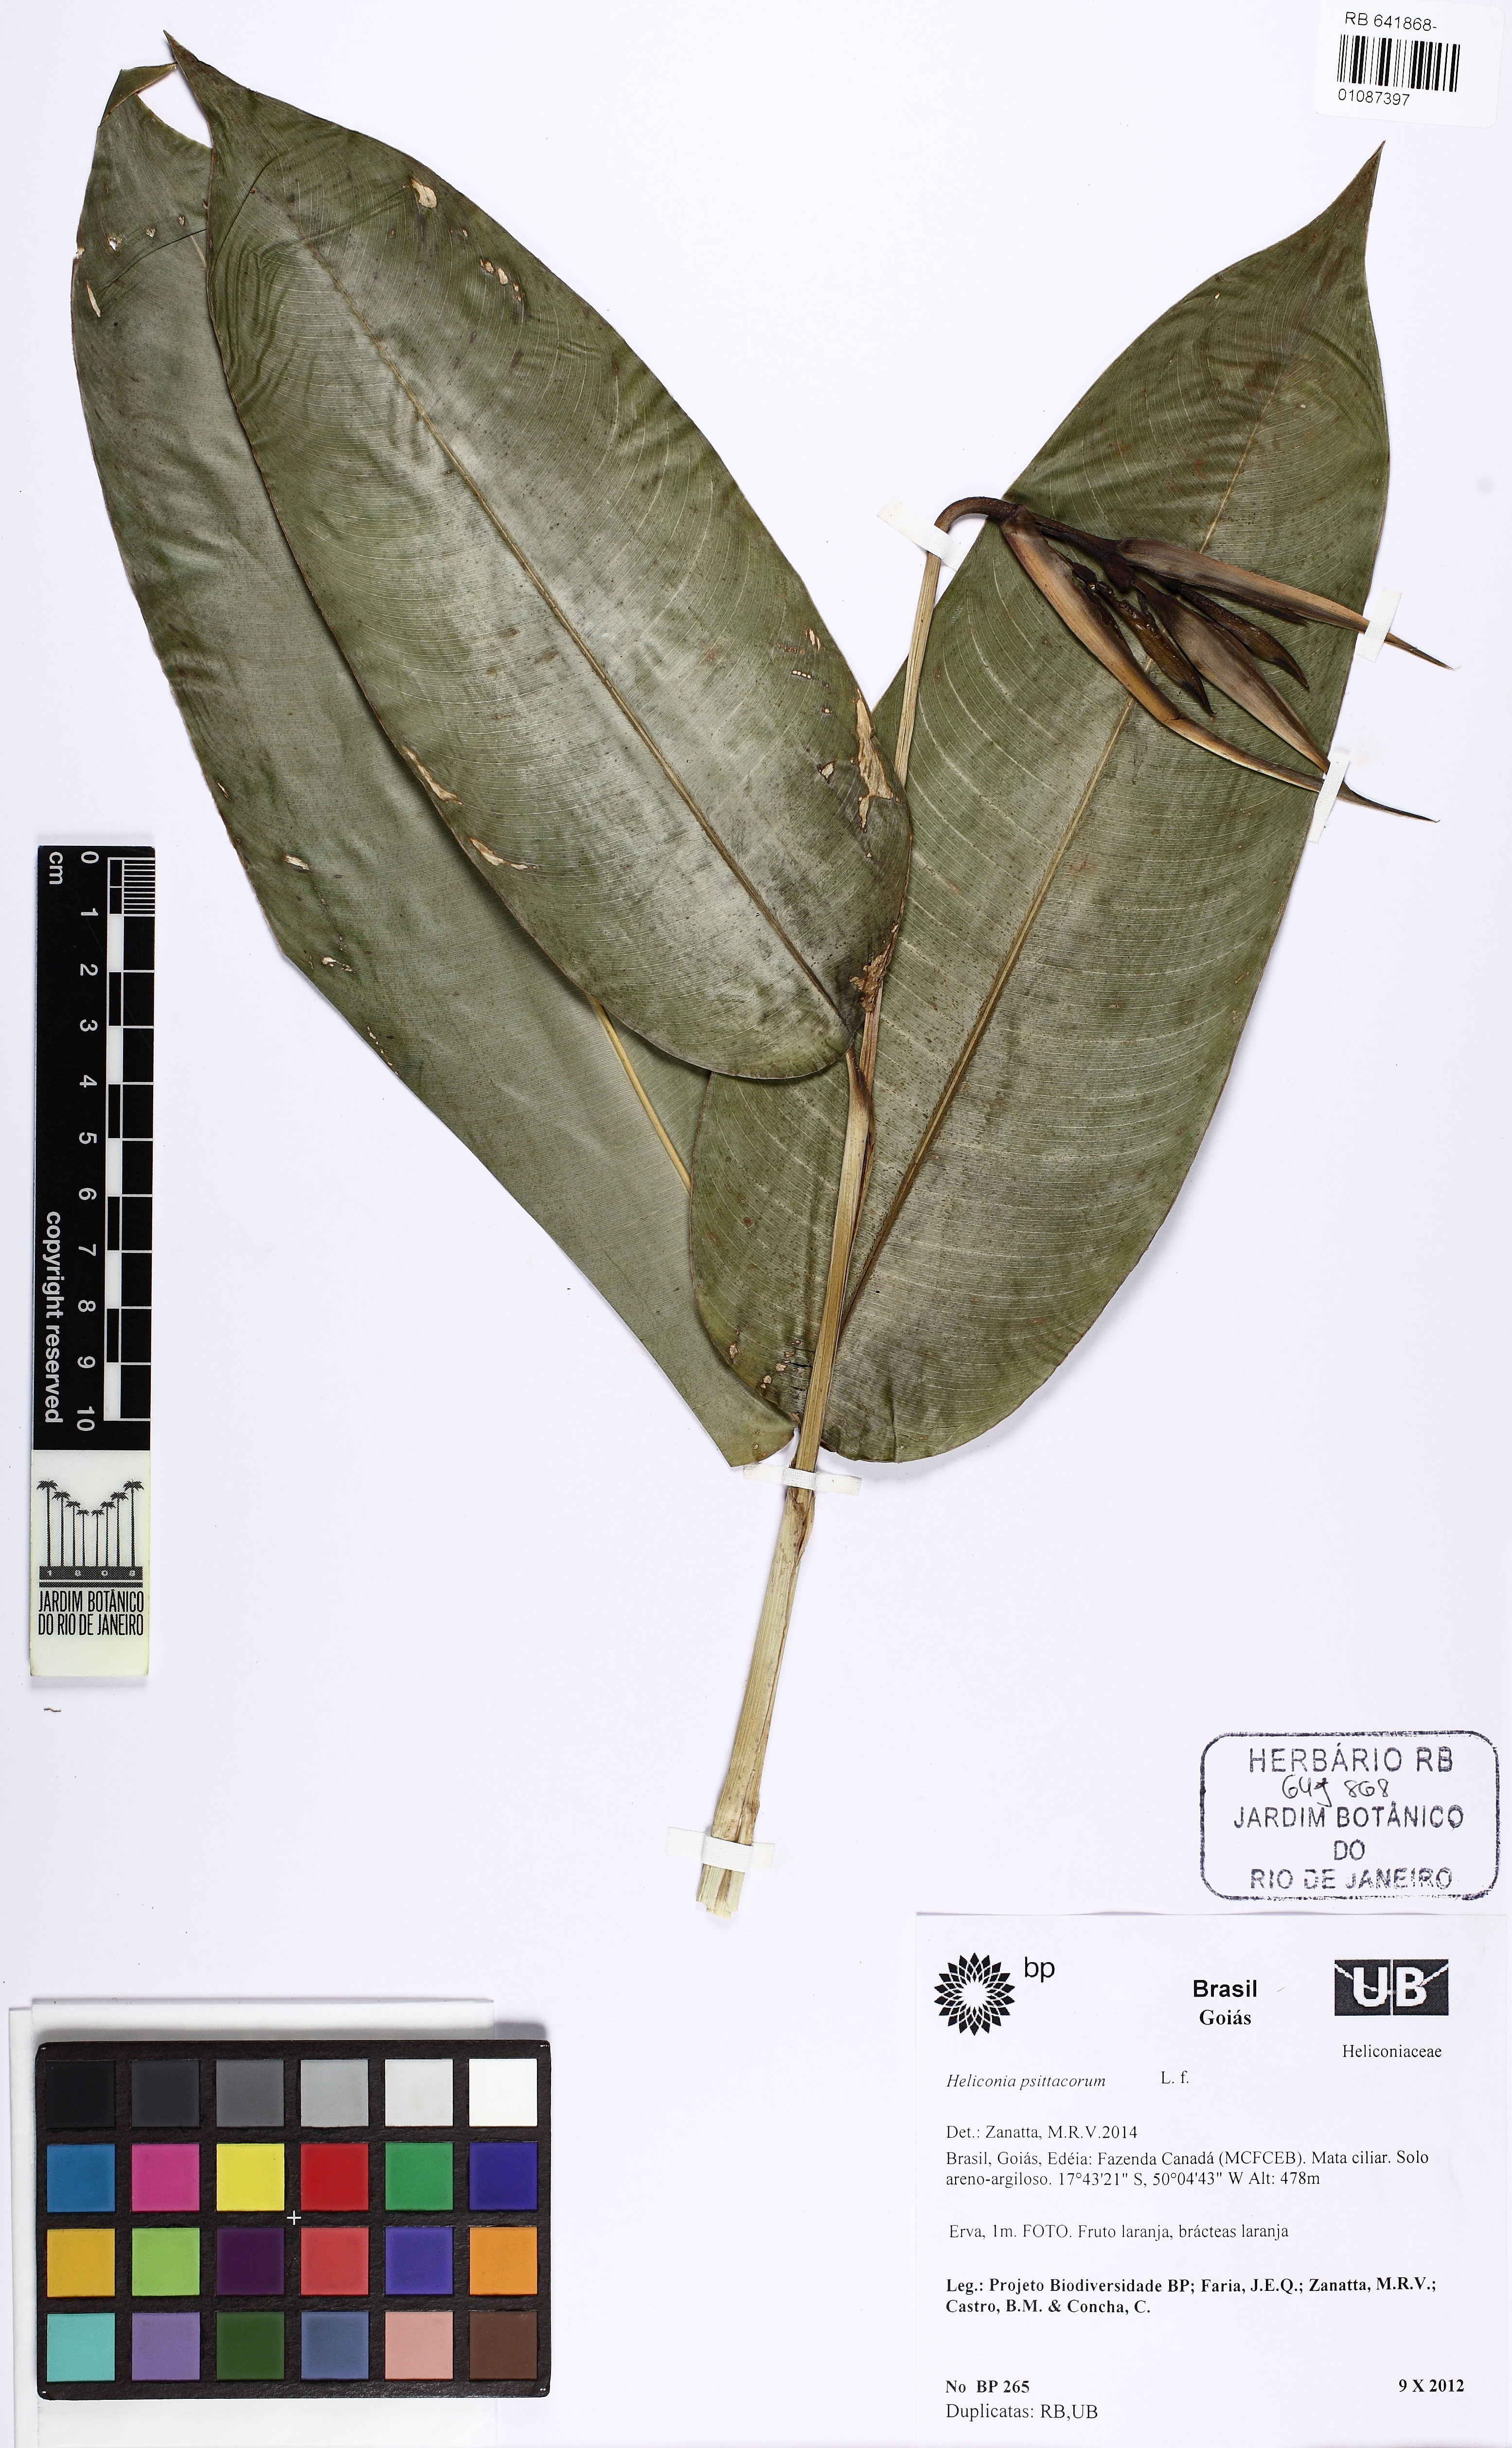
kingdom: Plantae
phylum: Tracheophyta
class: Liliopsida
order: Zingiberales
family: Heliconiaceae
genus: Heliconia
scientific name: Heliconia psittacorum
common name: Parrot's-flower
